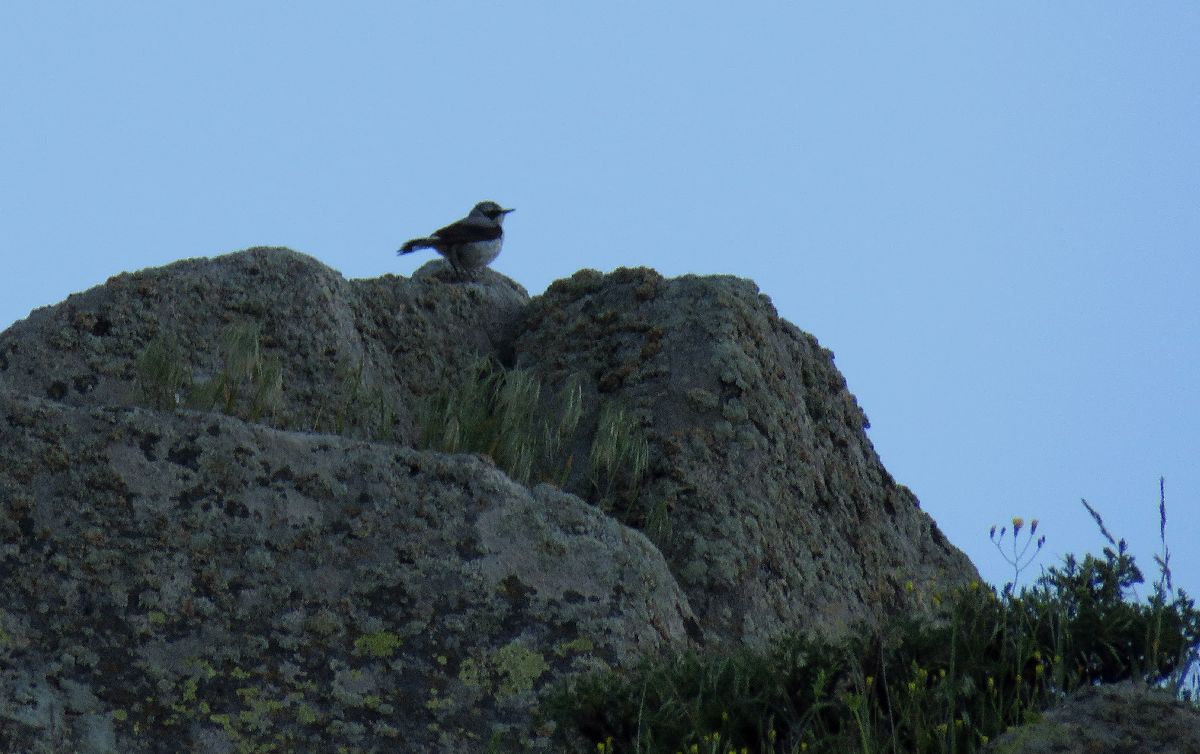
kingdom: Animalia
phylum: Chordata
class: Aves
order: Passeriformes
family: Muscicapidae
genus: Oenanthe
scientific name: Oenanthe oenanthe
